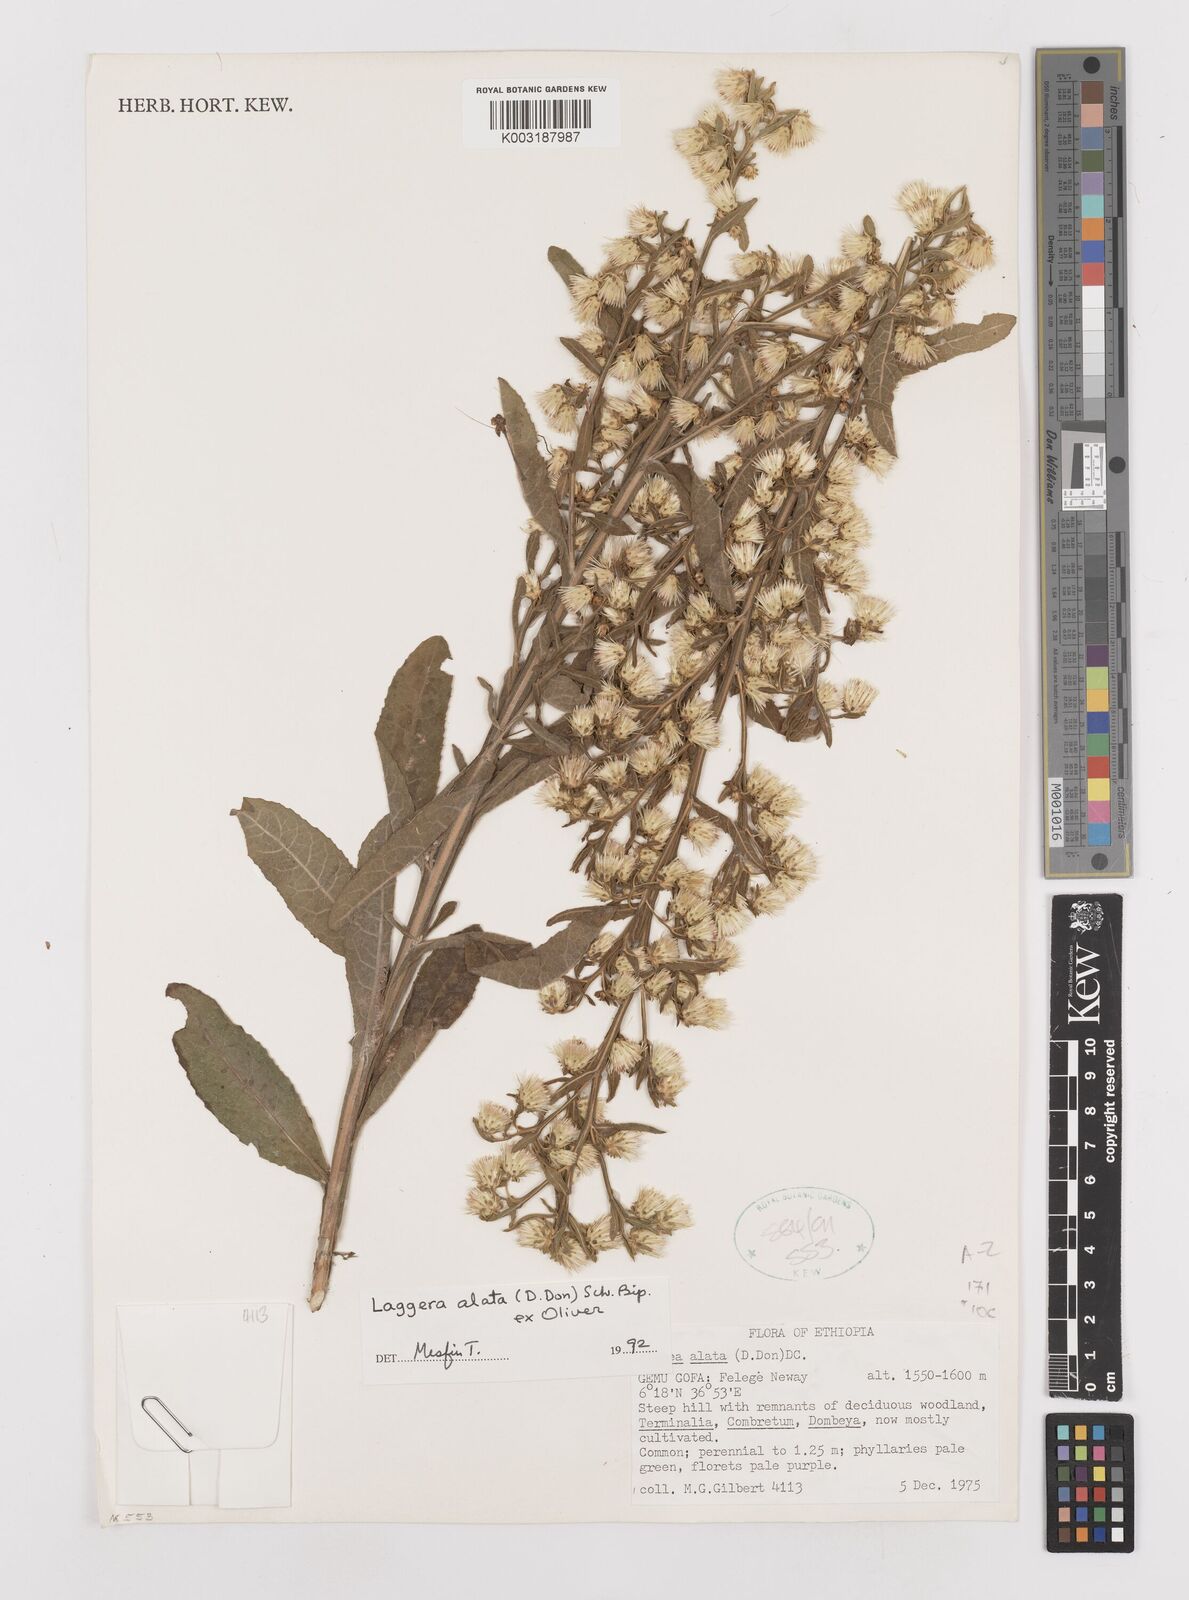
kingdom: Plantae
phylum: Tracheophyta
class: Magnoliopsida
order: Asterales
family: Asteraceae
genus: Laggera
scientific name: Laggera crispata
